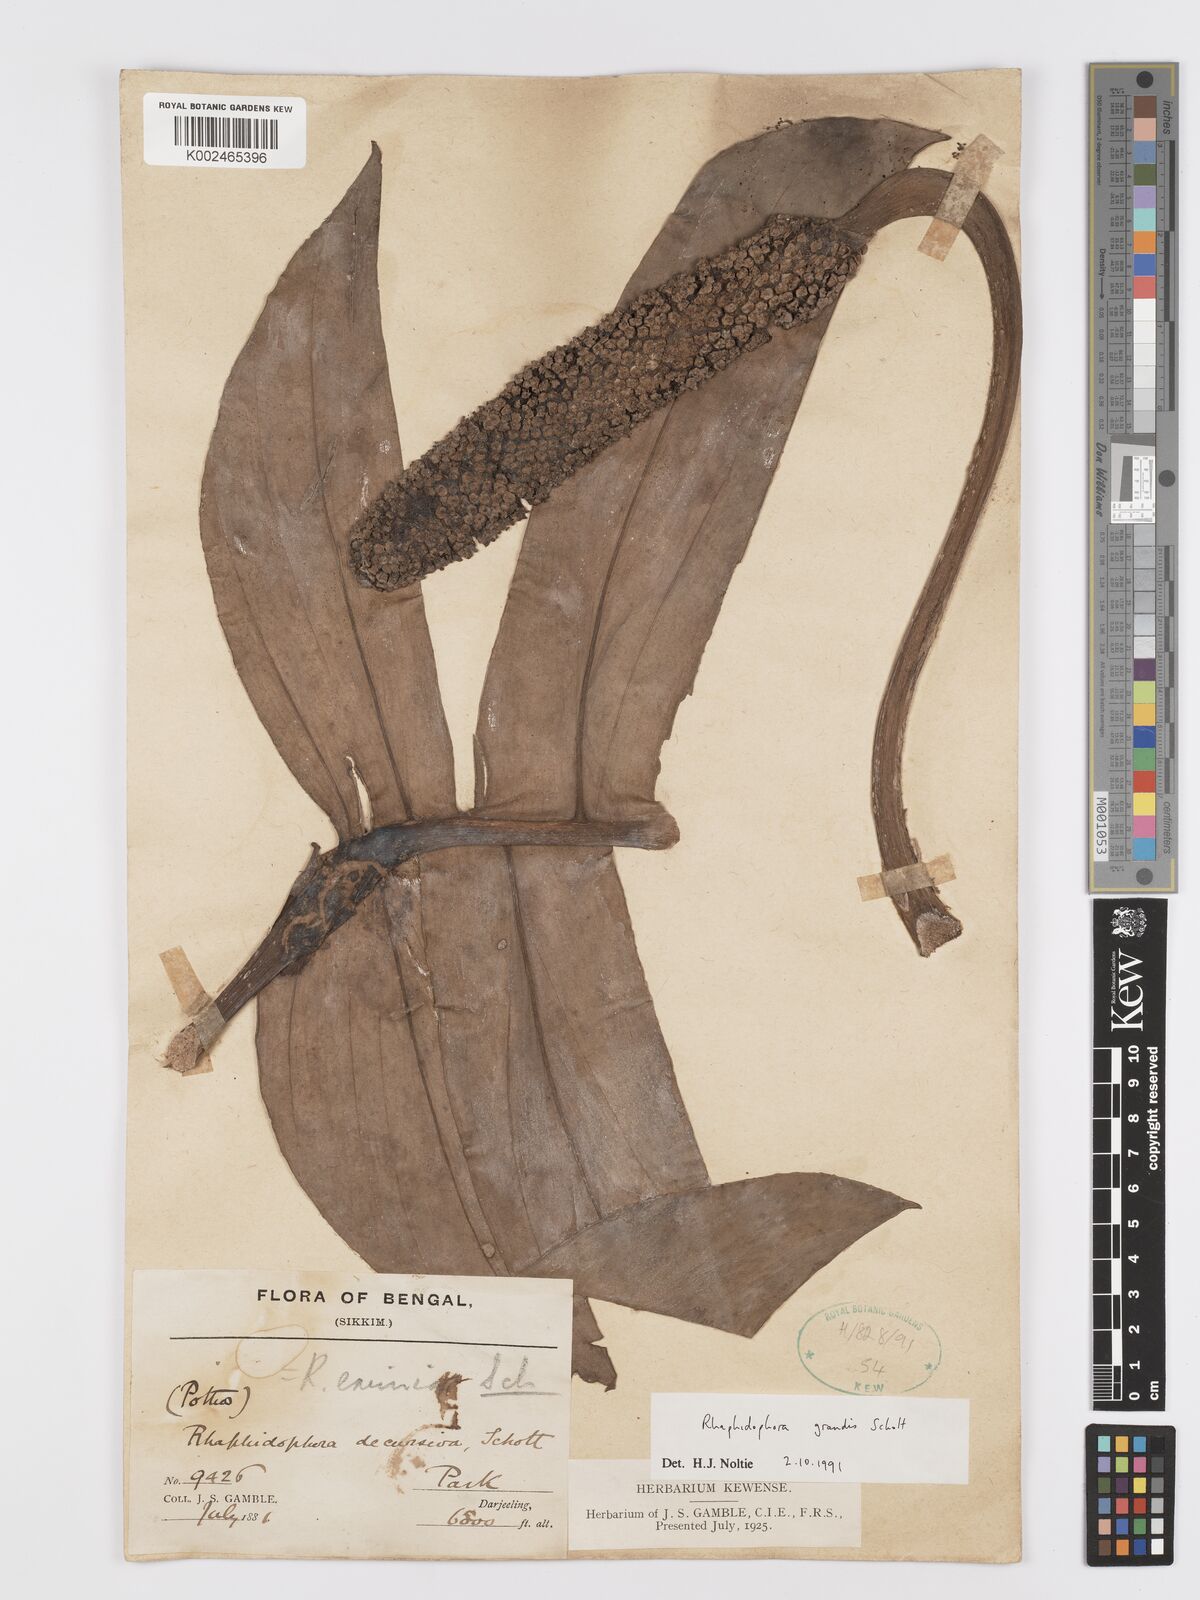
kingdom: Plantae
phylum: Tracheophyta
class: Liliopsida
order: Alismatales
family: Araceae
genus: Rhaphidophora
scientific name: Rhaphidophora decursiva
